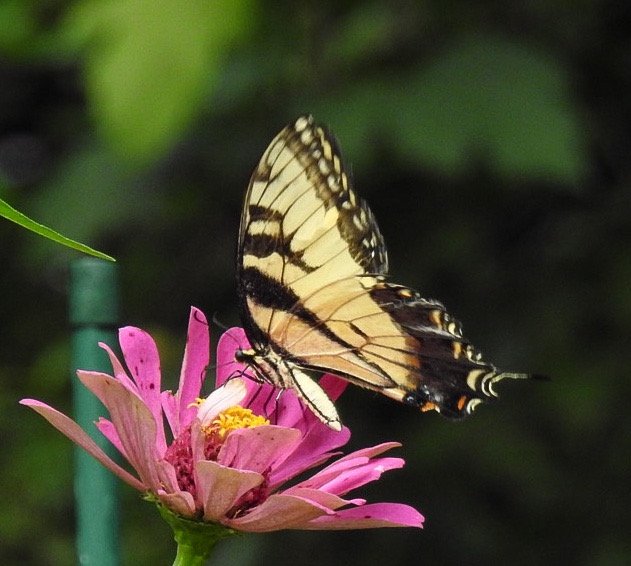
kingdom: Animalia
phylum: Arthropoda
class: Insecta
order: Lepidoptera
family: Papilionidae
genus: Pterourus
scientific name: Pterourus glaucus
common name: Eastern Tiger Swallowtail
